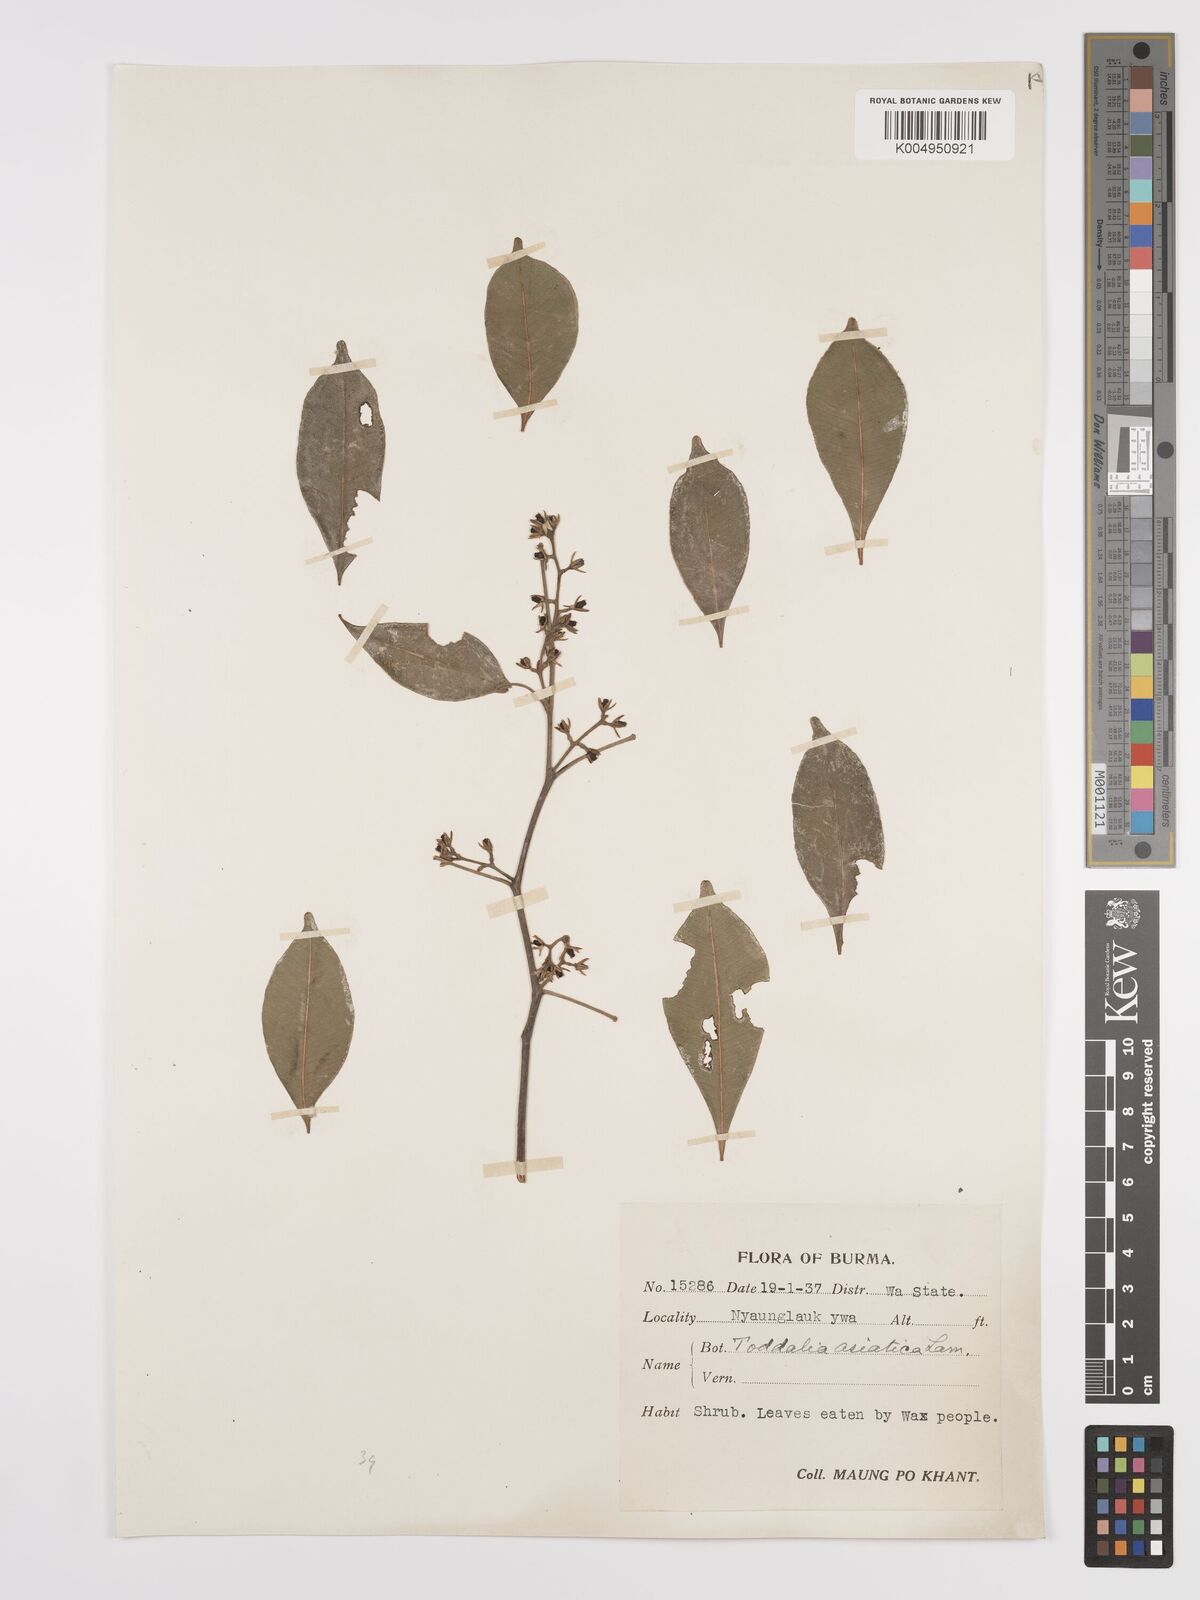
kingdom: Plantae
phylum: Tracheophyta
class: Magnoliopsida
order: Sapindales
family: Rutaceae
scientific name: Rutaceae
